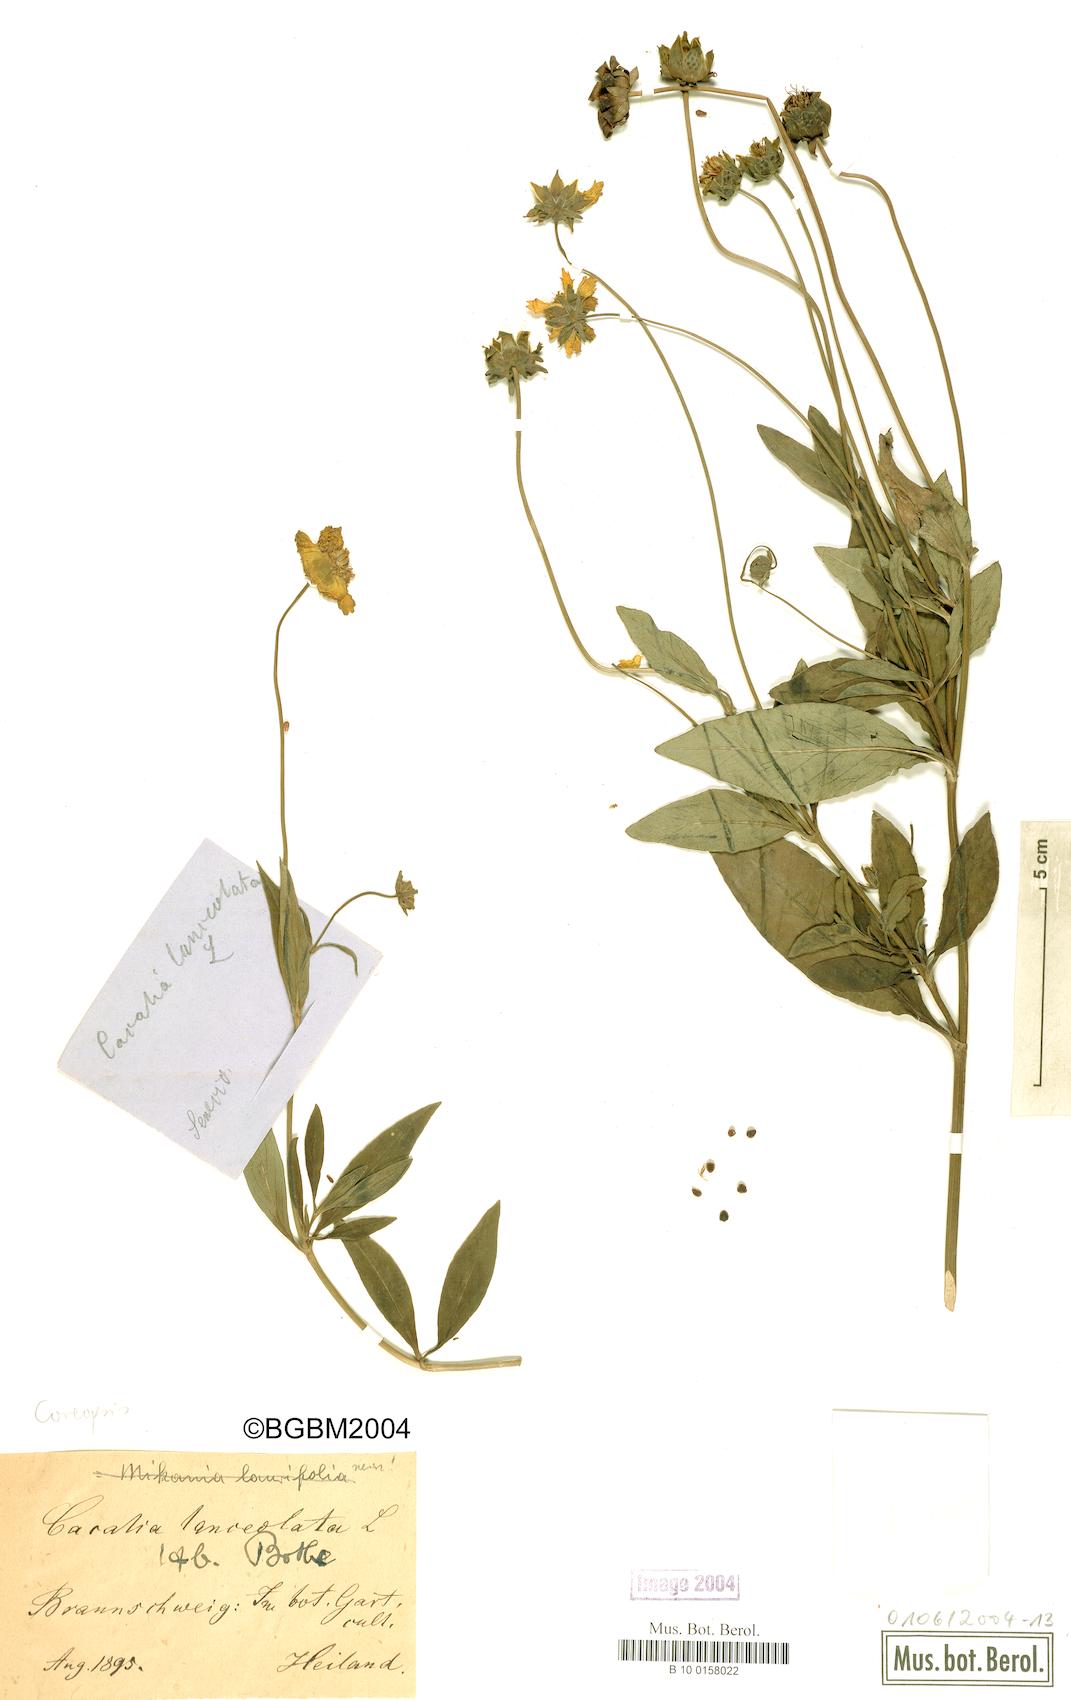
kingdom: Plantae
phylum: Tracheophyta
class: Magnoliopsida
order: Asterales
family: Asteraceae
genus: Coreopsis
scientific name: Coreopsis lanceolata
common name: Garden coreopsis
